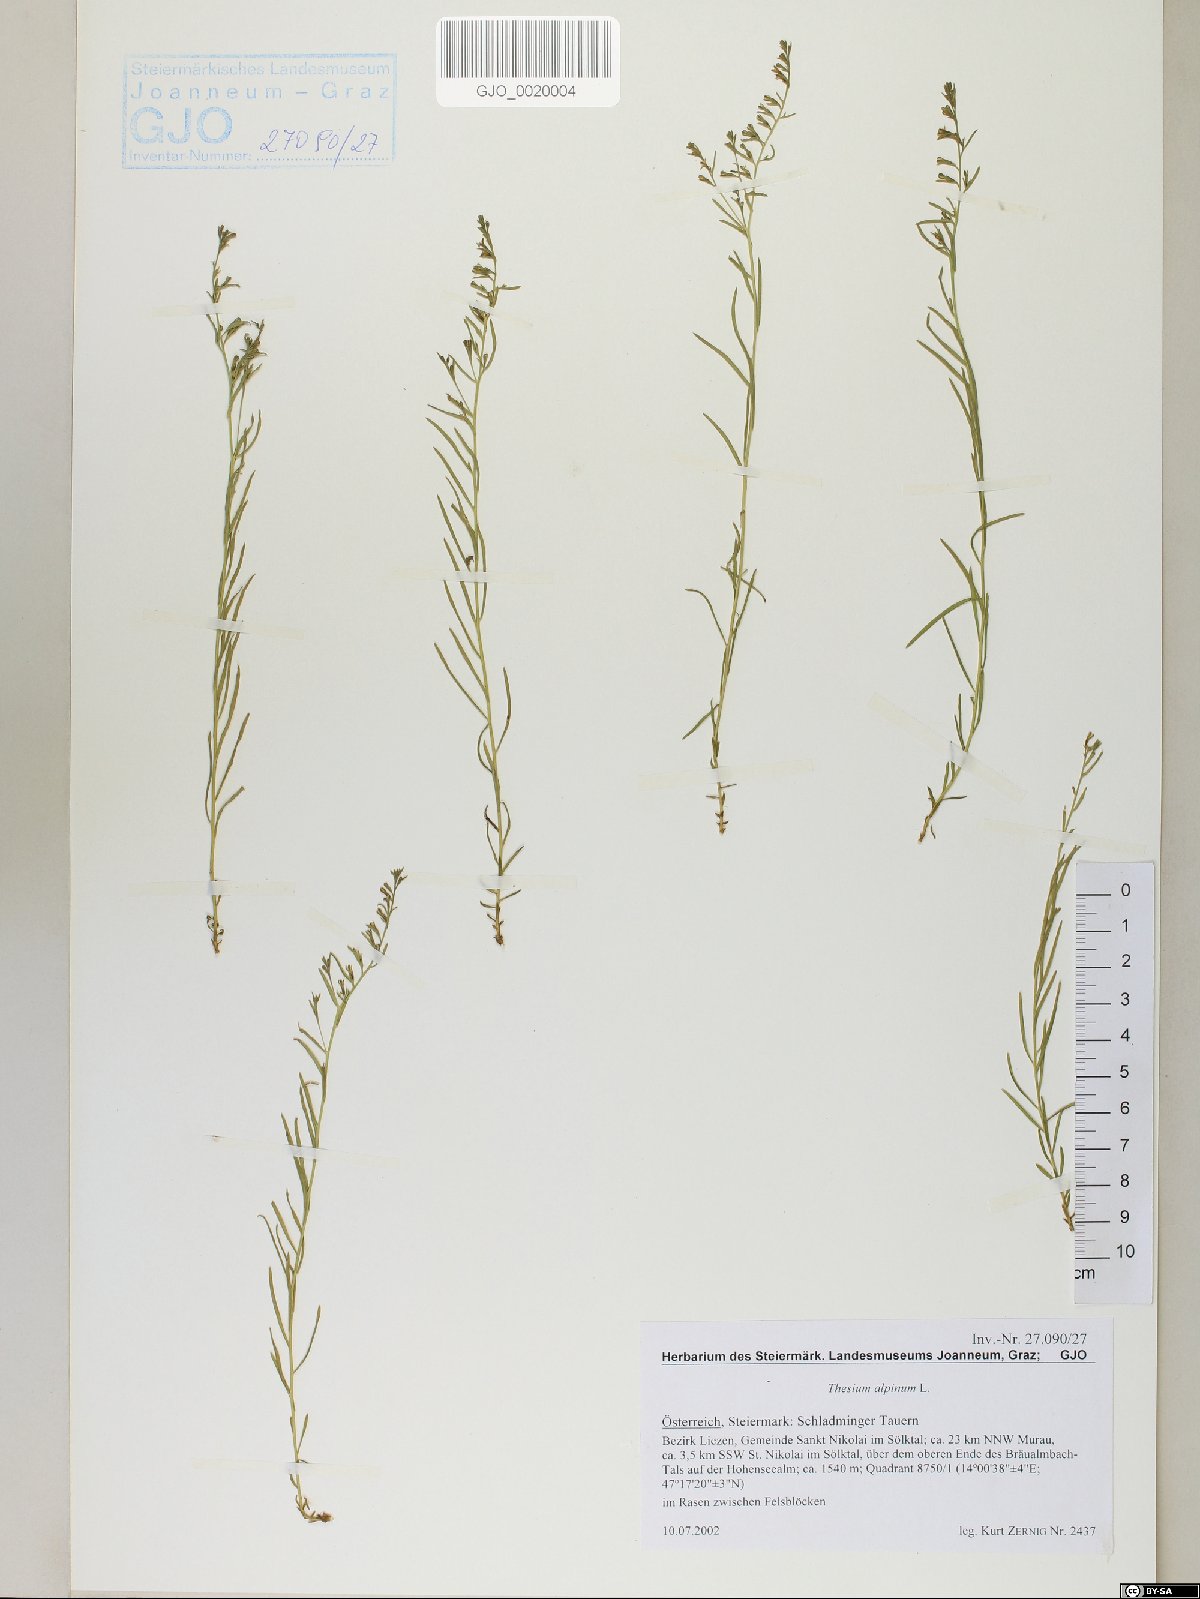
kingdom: Plantae
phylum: Tracheophyta
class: Magnoliopsida
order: Santalales
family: Thesiaceae
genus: Thesium
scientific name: Thesium alpinum
